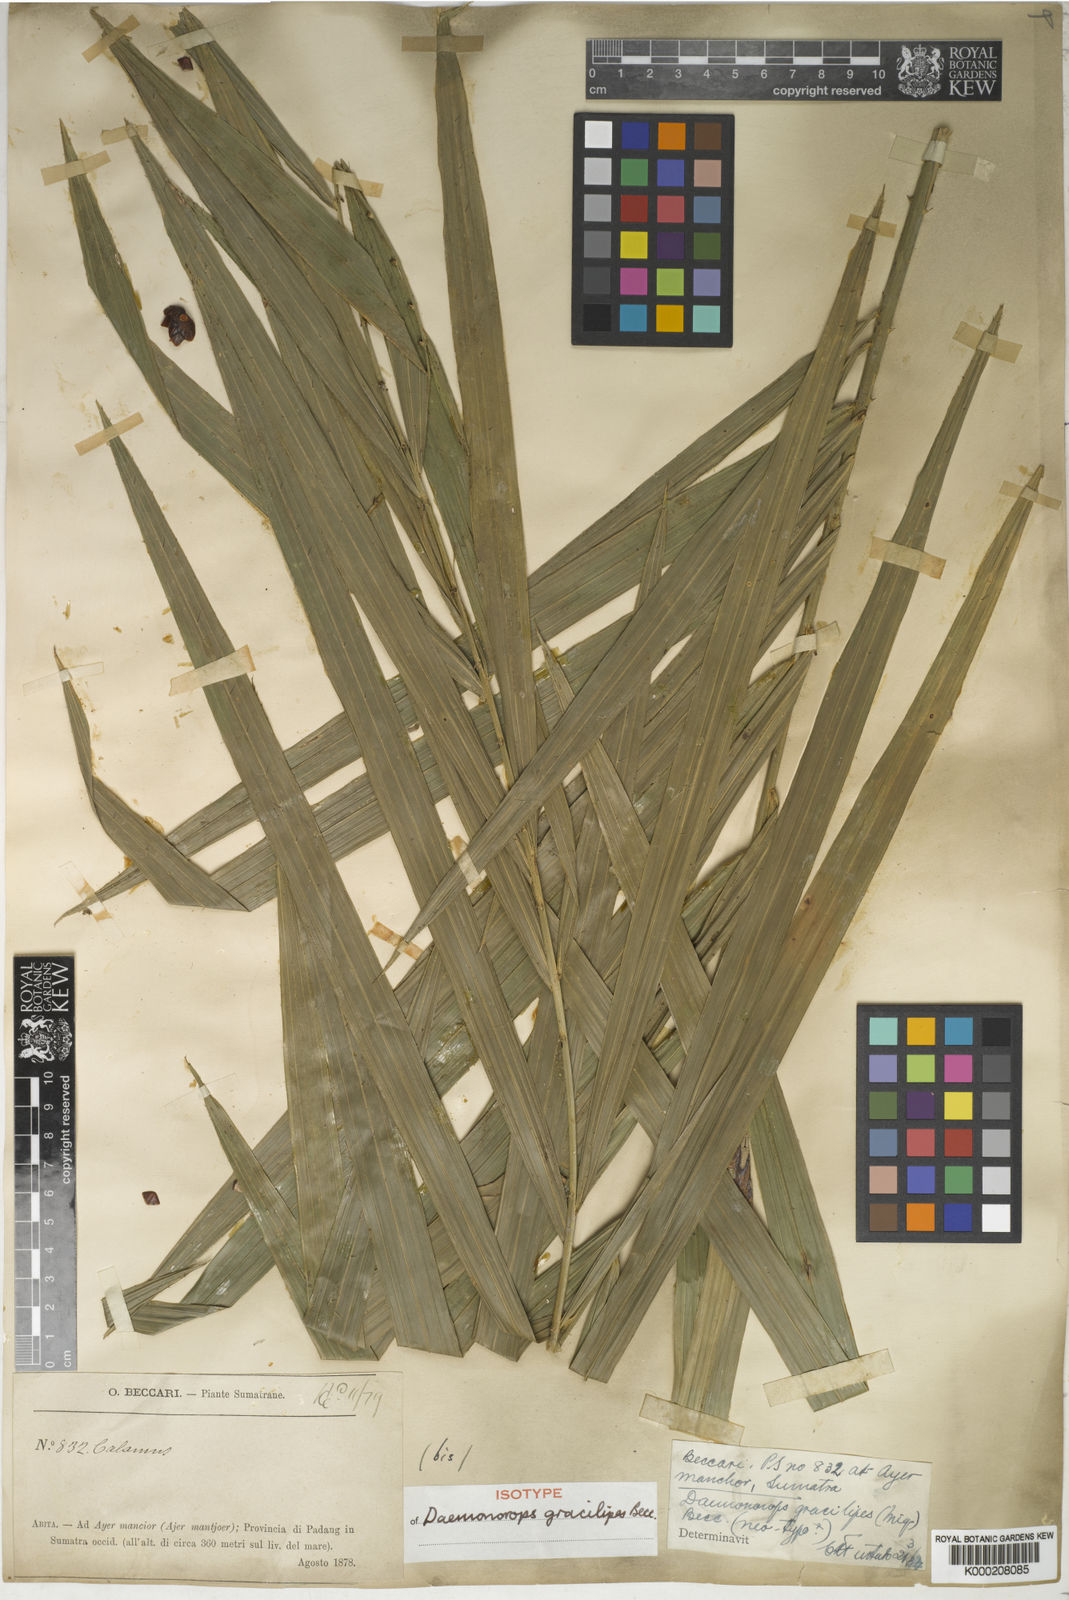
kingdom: Plantae
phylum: Tracheophyta
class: Liliopsida
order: Arecales
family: Arecaceae
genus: Daemonorops
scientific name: Daemonorops
